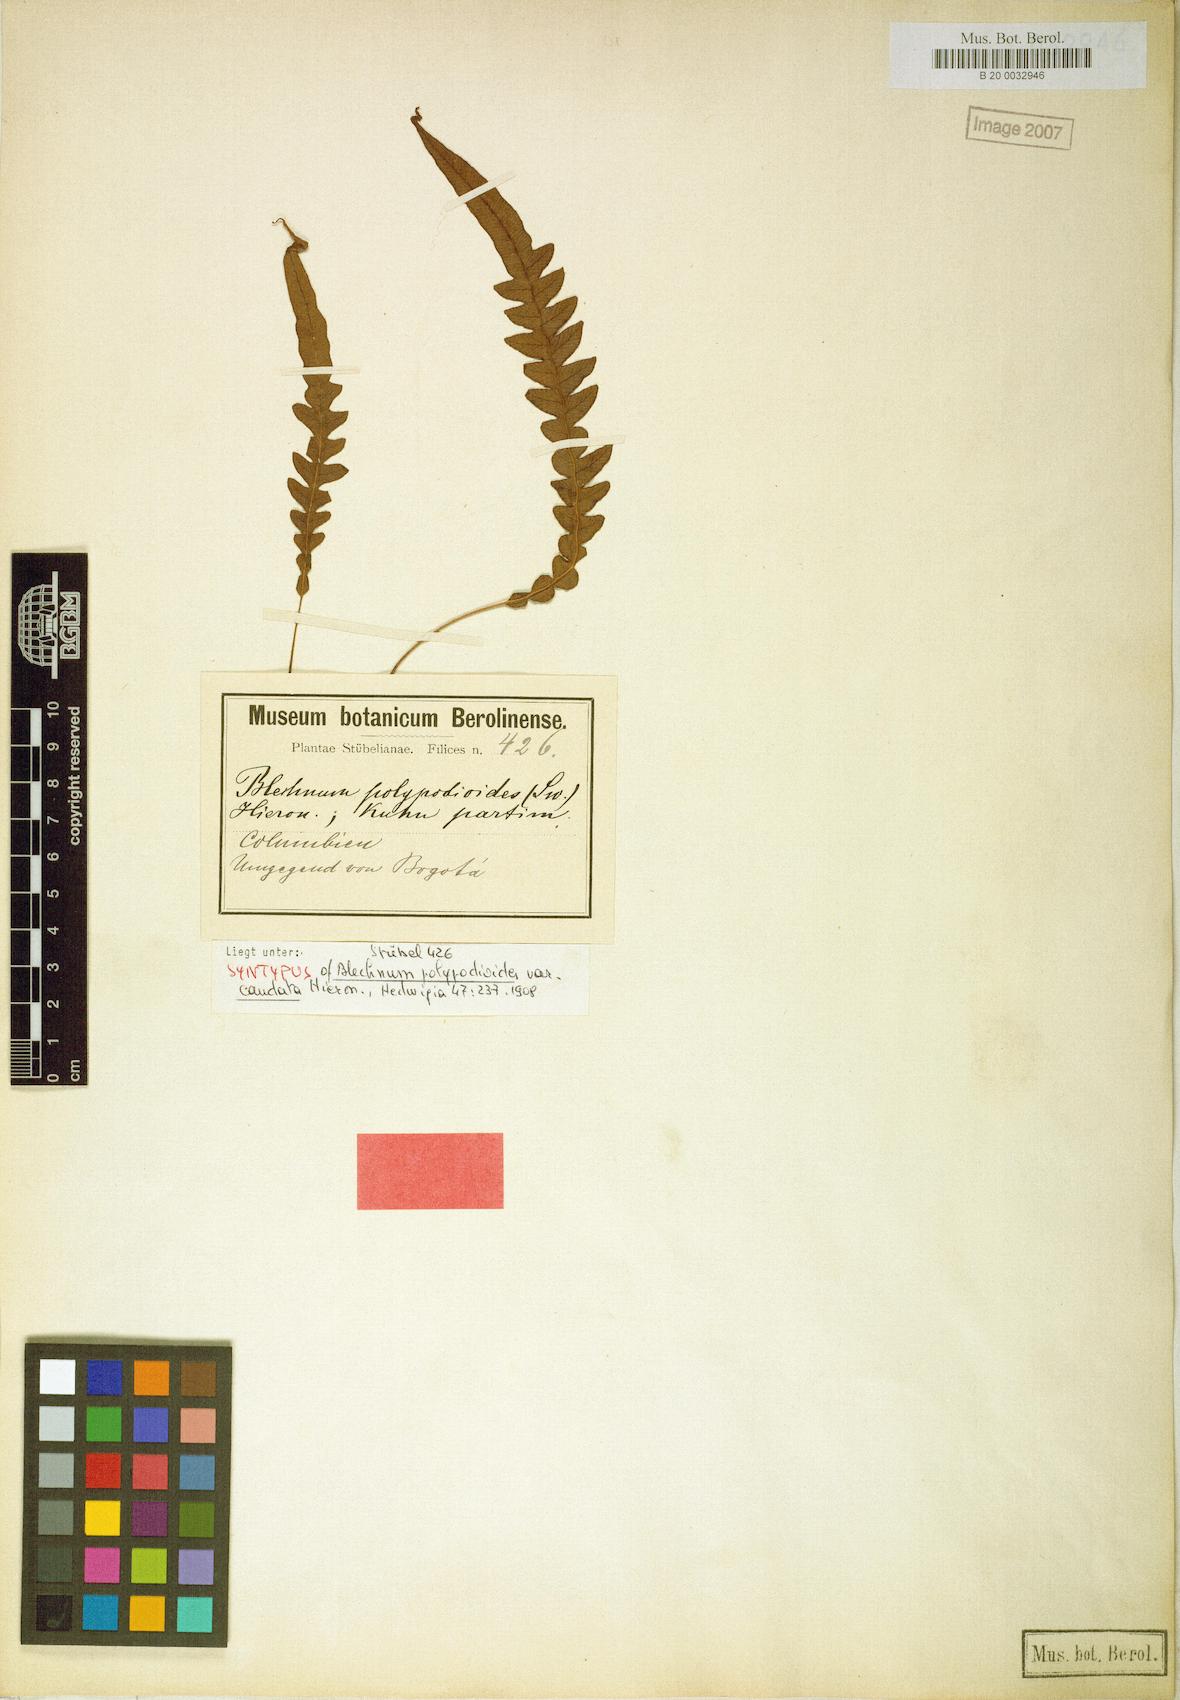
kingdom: Plantae
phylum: Tracheophyta
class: Polypodiopsida
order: Polypodiales
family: Blechnaceae
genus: Lomaridium
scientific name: Lomaridium fragile
